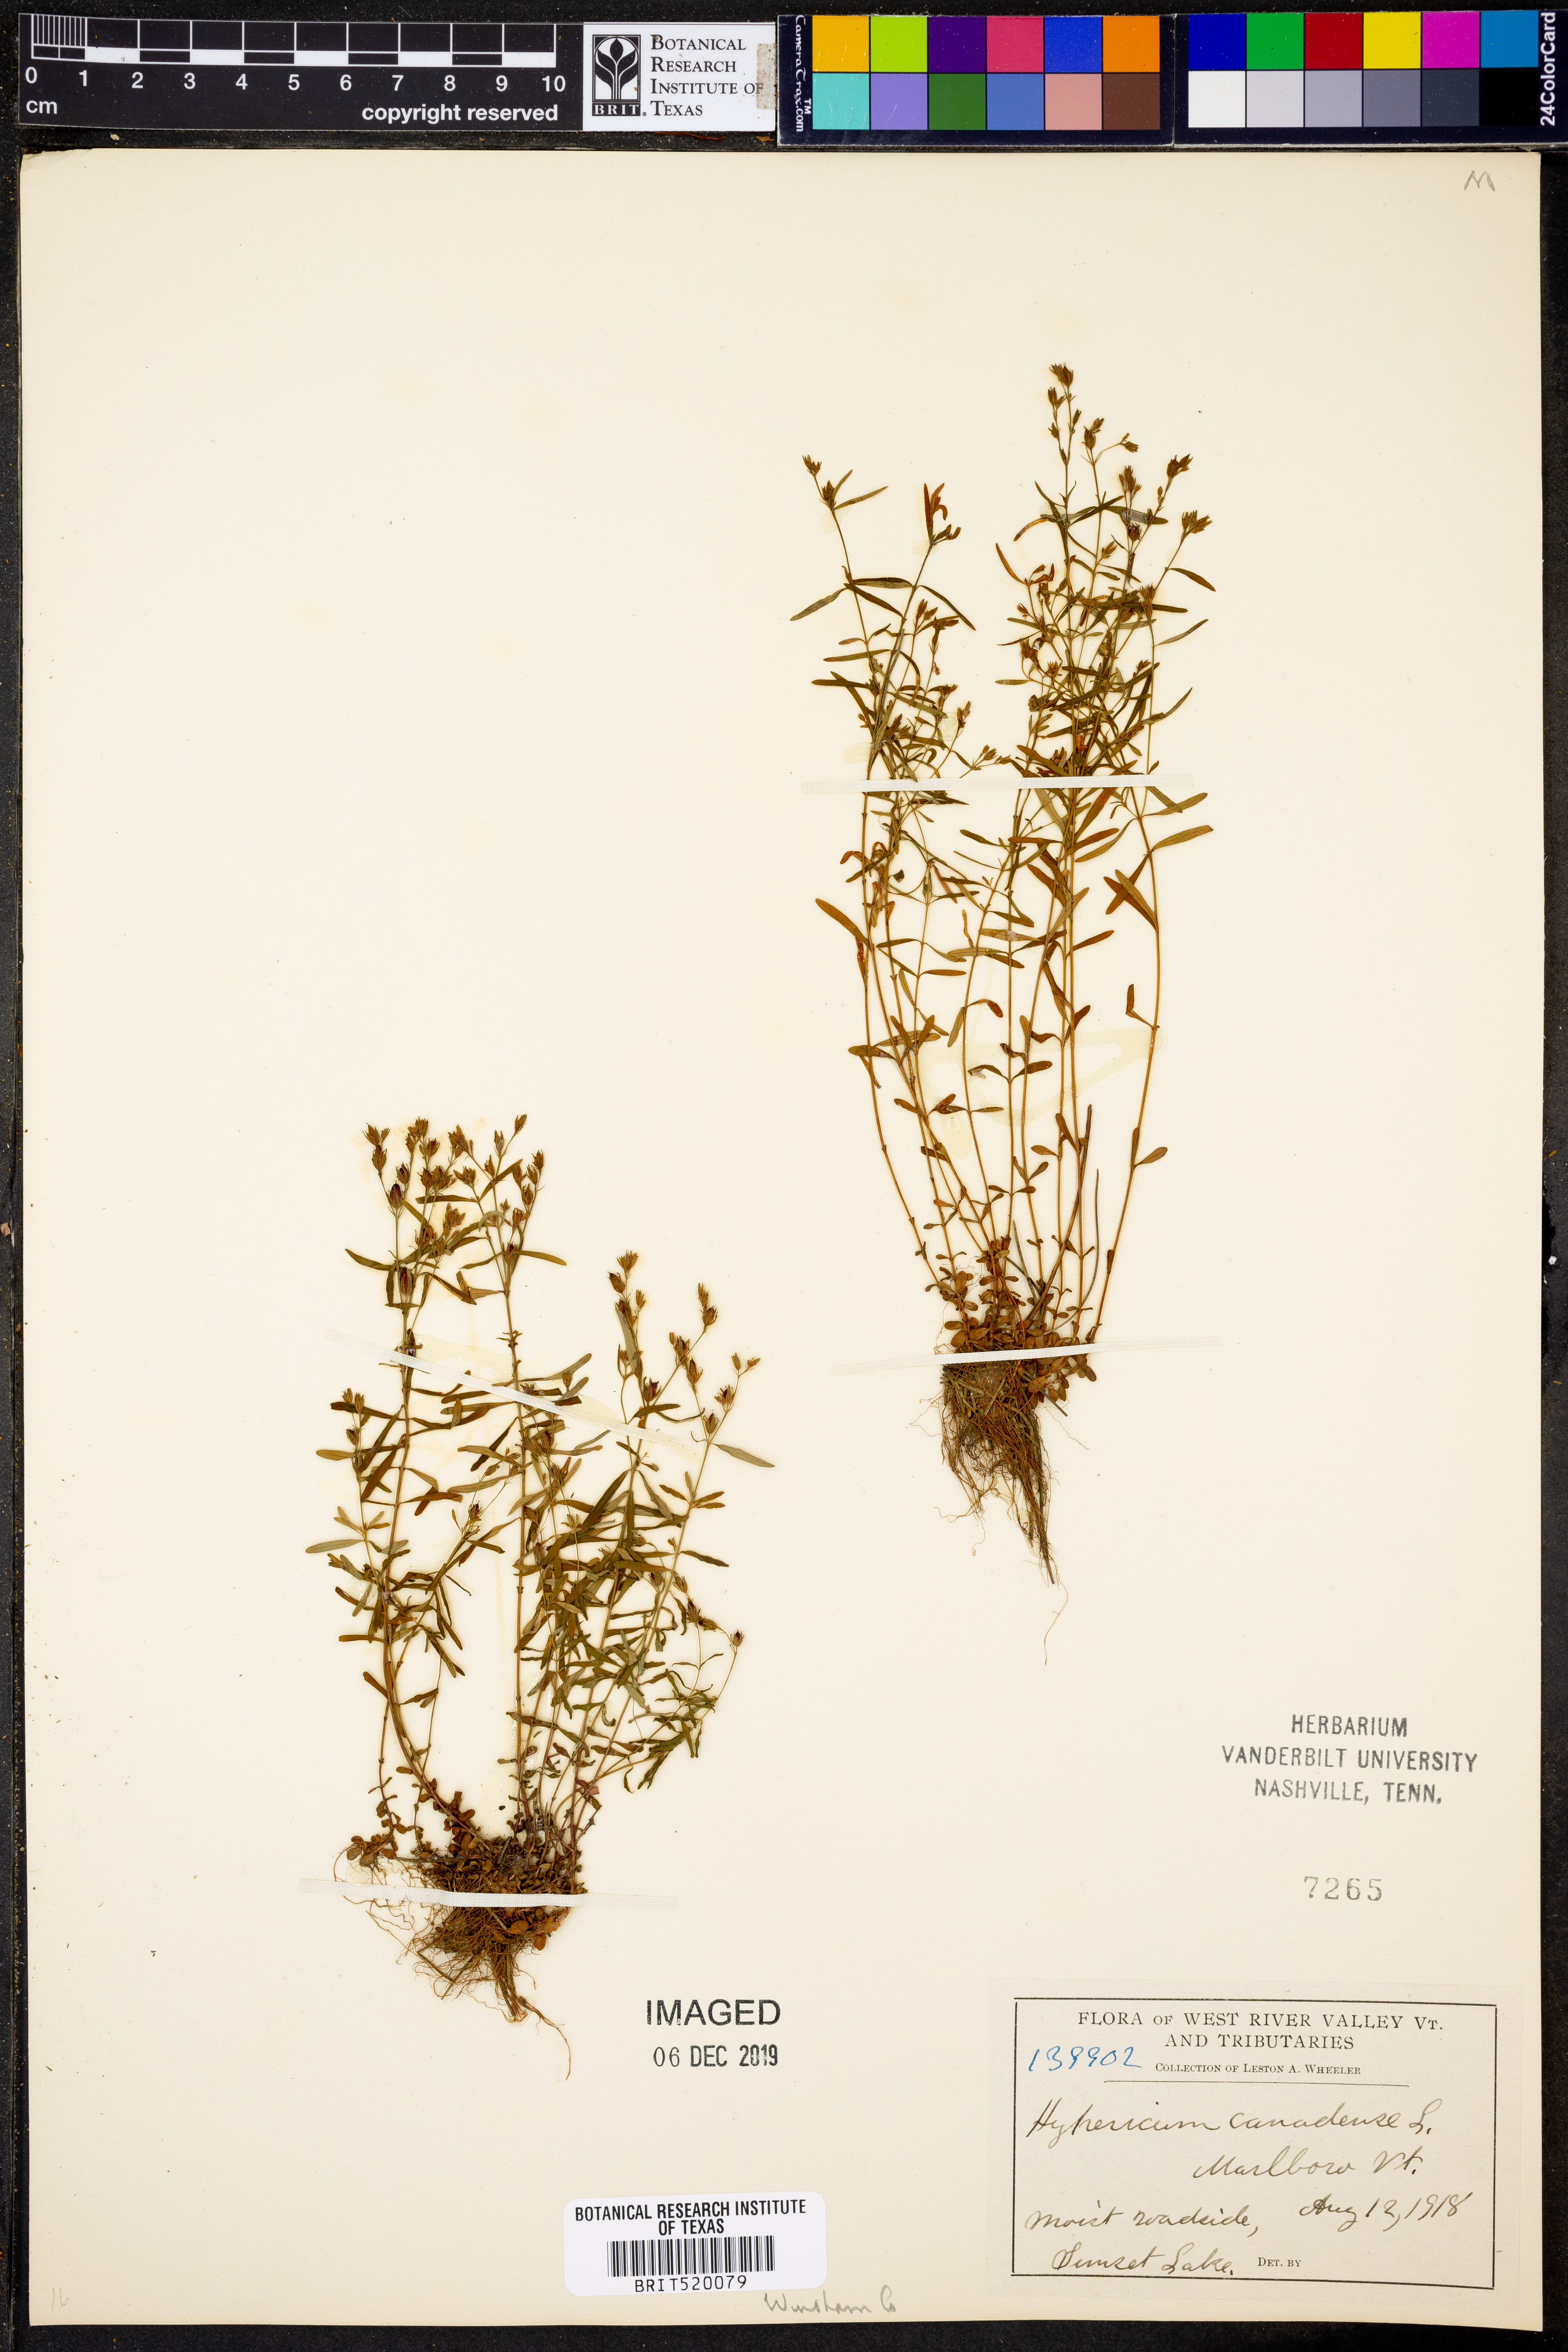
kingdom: Plantae
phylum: Tracheophyta
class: Magnoliopsida
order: Malpighiales
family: Hypericaceae
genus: Hypericum
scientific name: Hypericum canadense
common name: Irish st. john's-wort
